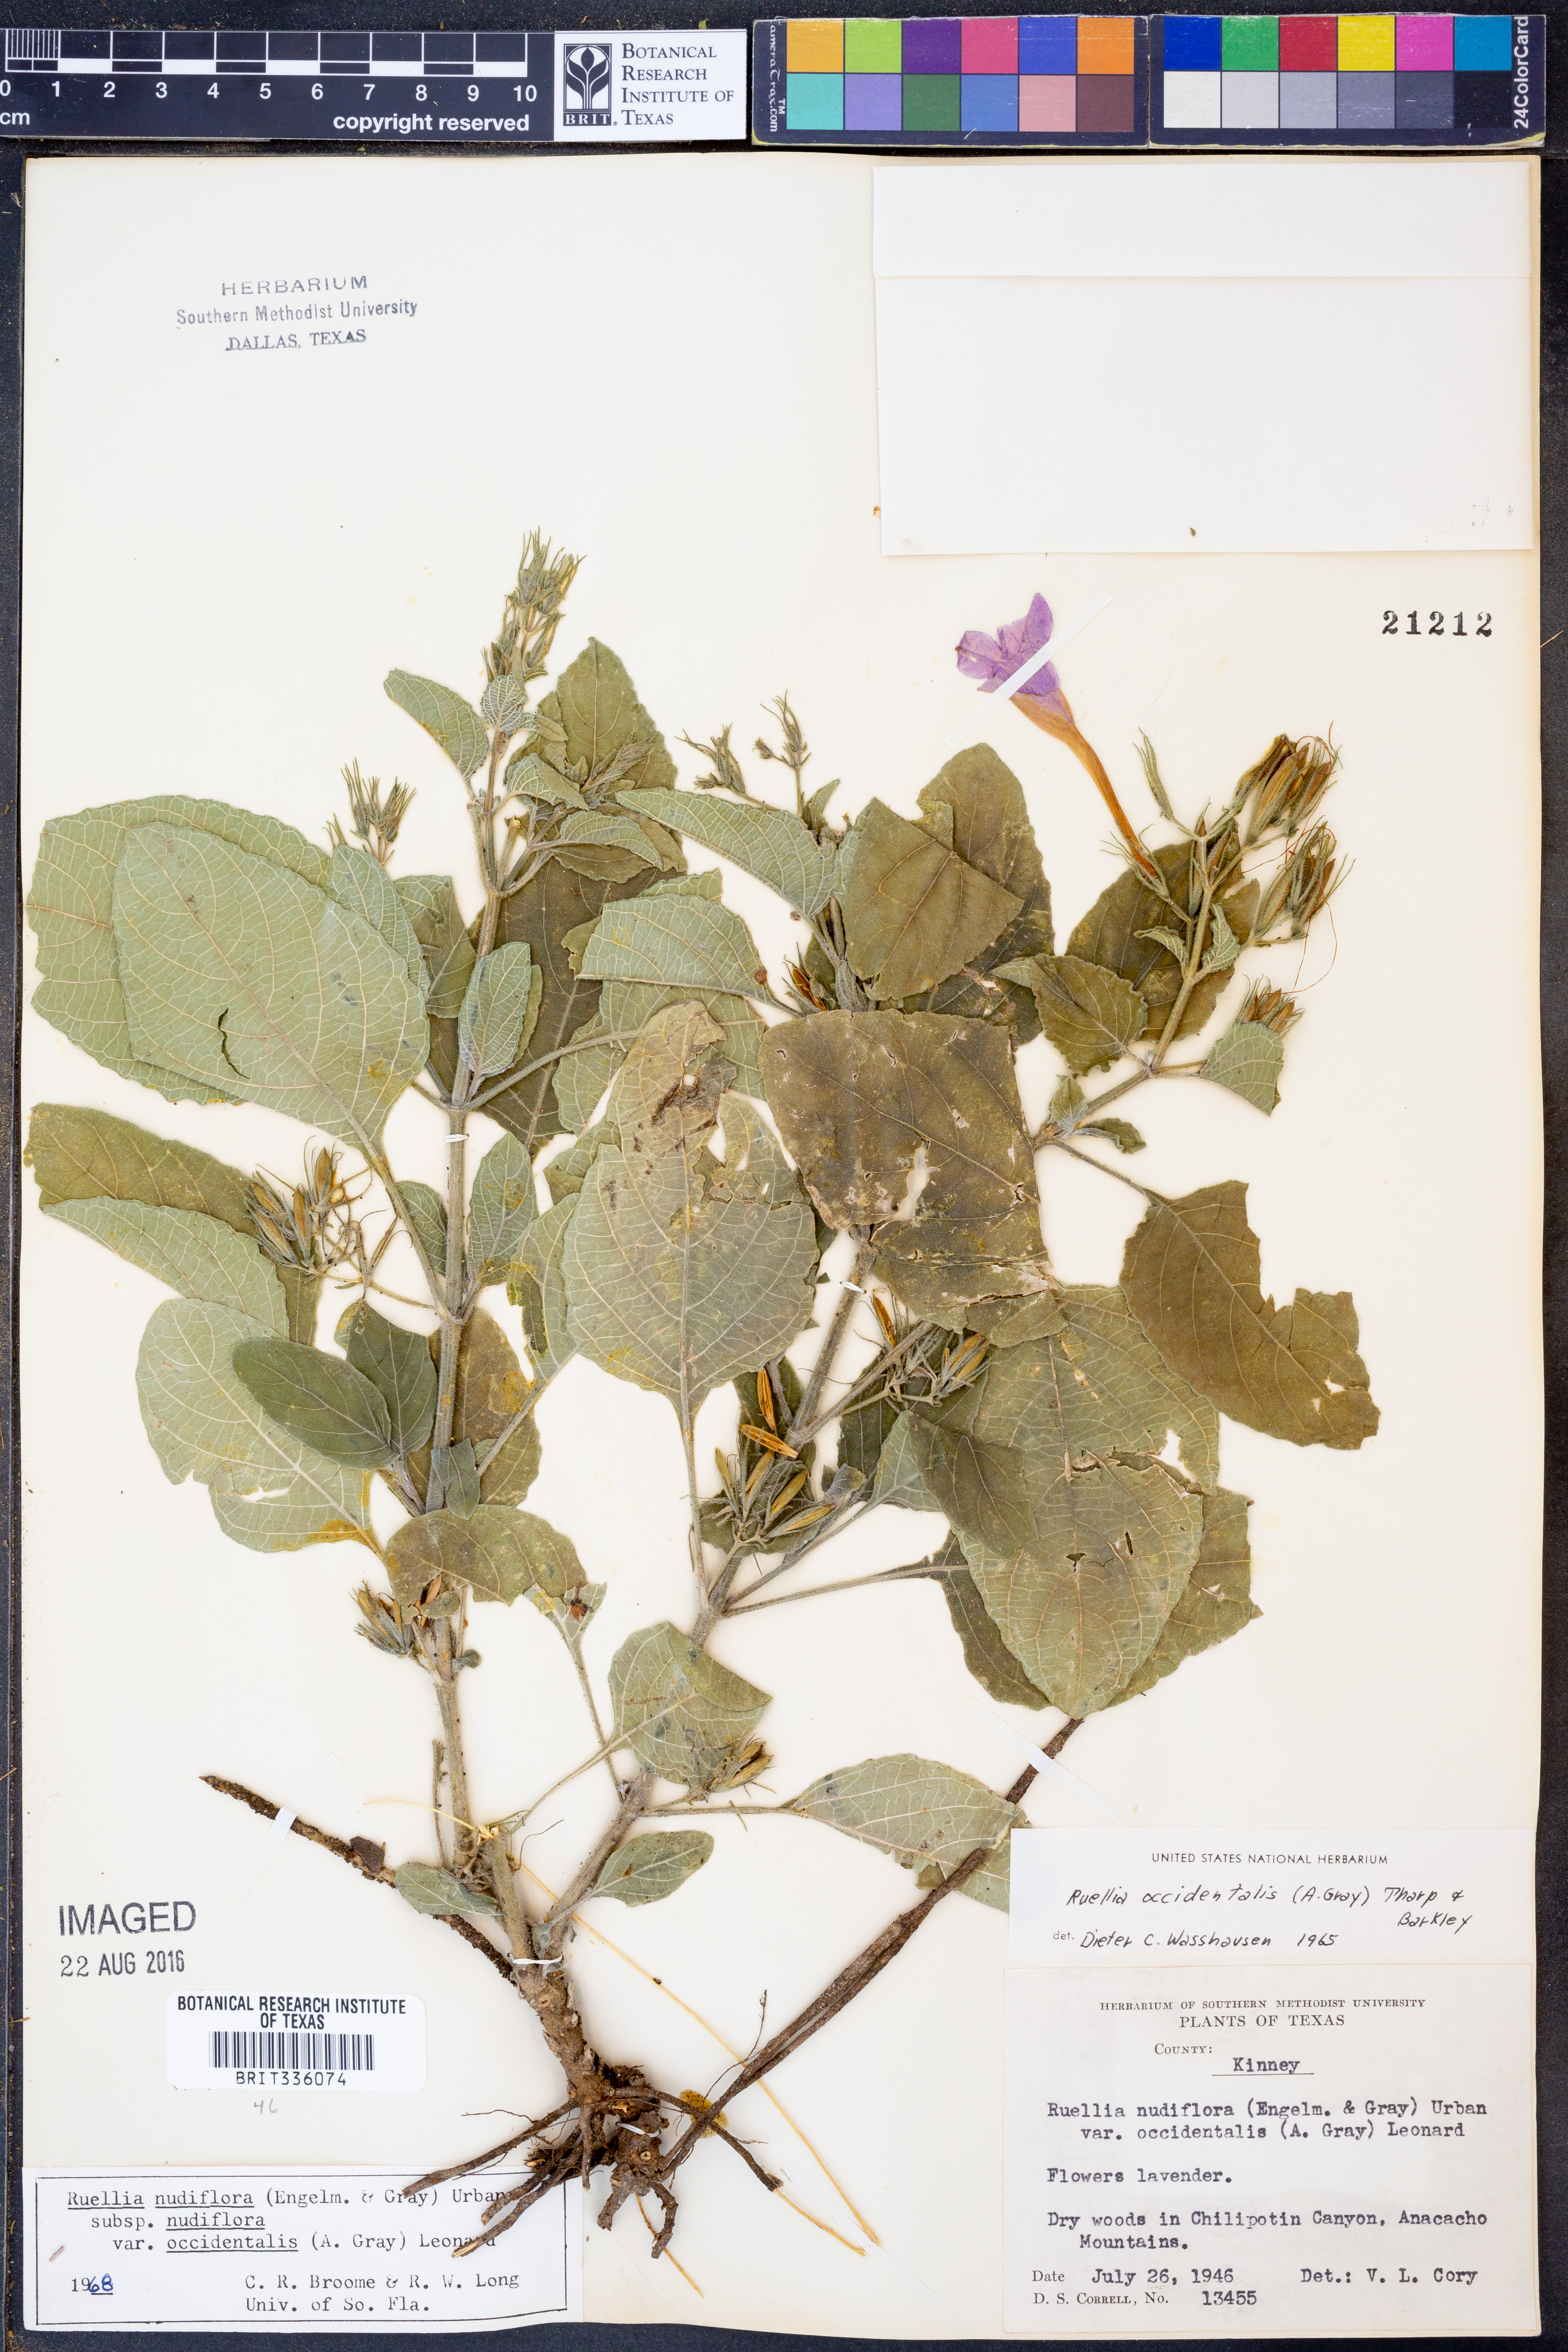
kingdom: Plantae
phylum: Tracheophyta
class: Magnoliopsida
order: Lamiales
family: Acanthaceae
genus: Ruellia
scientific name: Ruellia ciliatiflora
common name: Hairyflower wild petunia
